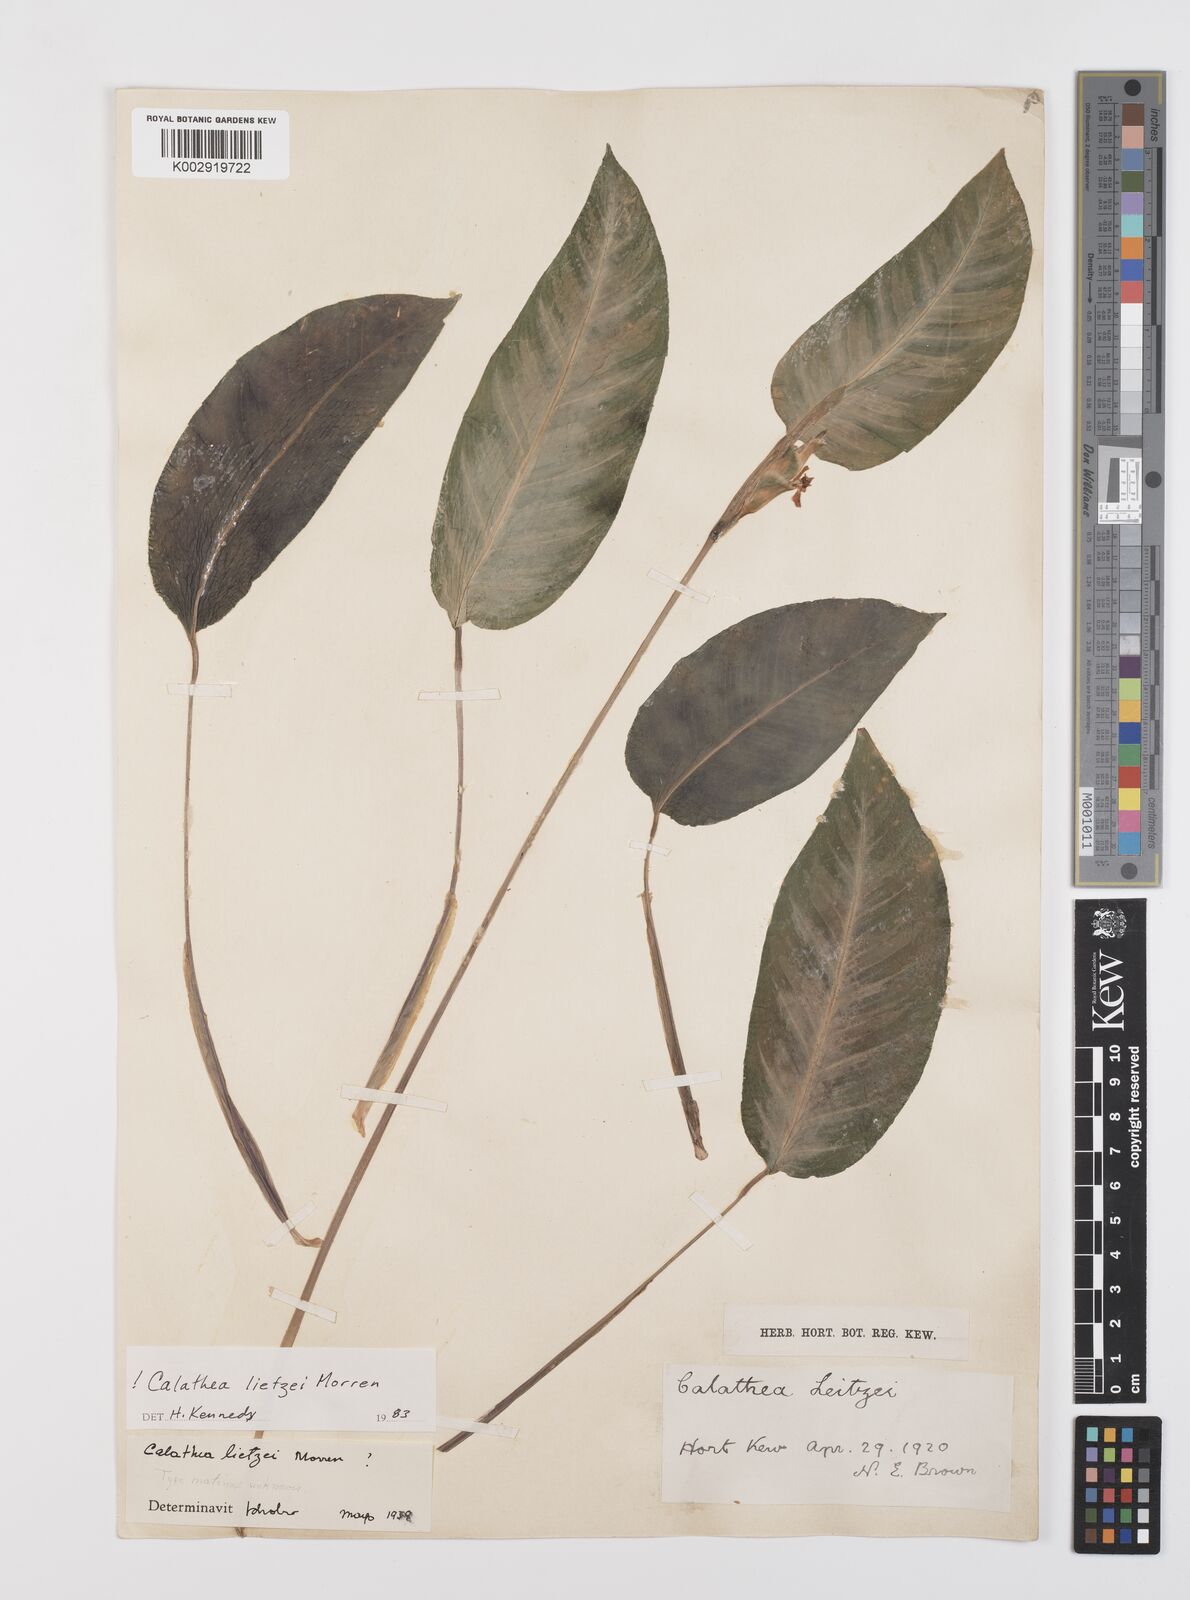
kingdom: Plantae
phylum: Tracheophyta
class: Liliopsida
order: Zingiberales
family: Marantaceae
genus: Goeppertia
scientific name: Goeppertia lietzei
